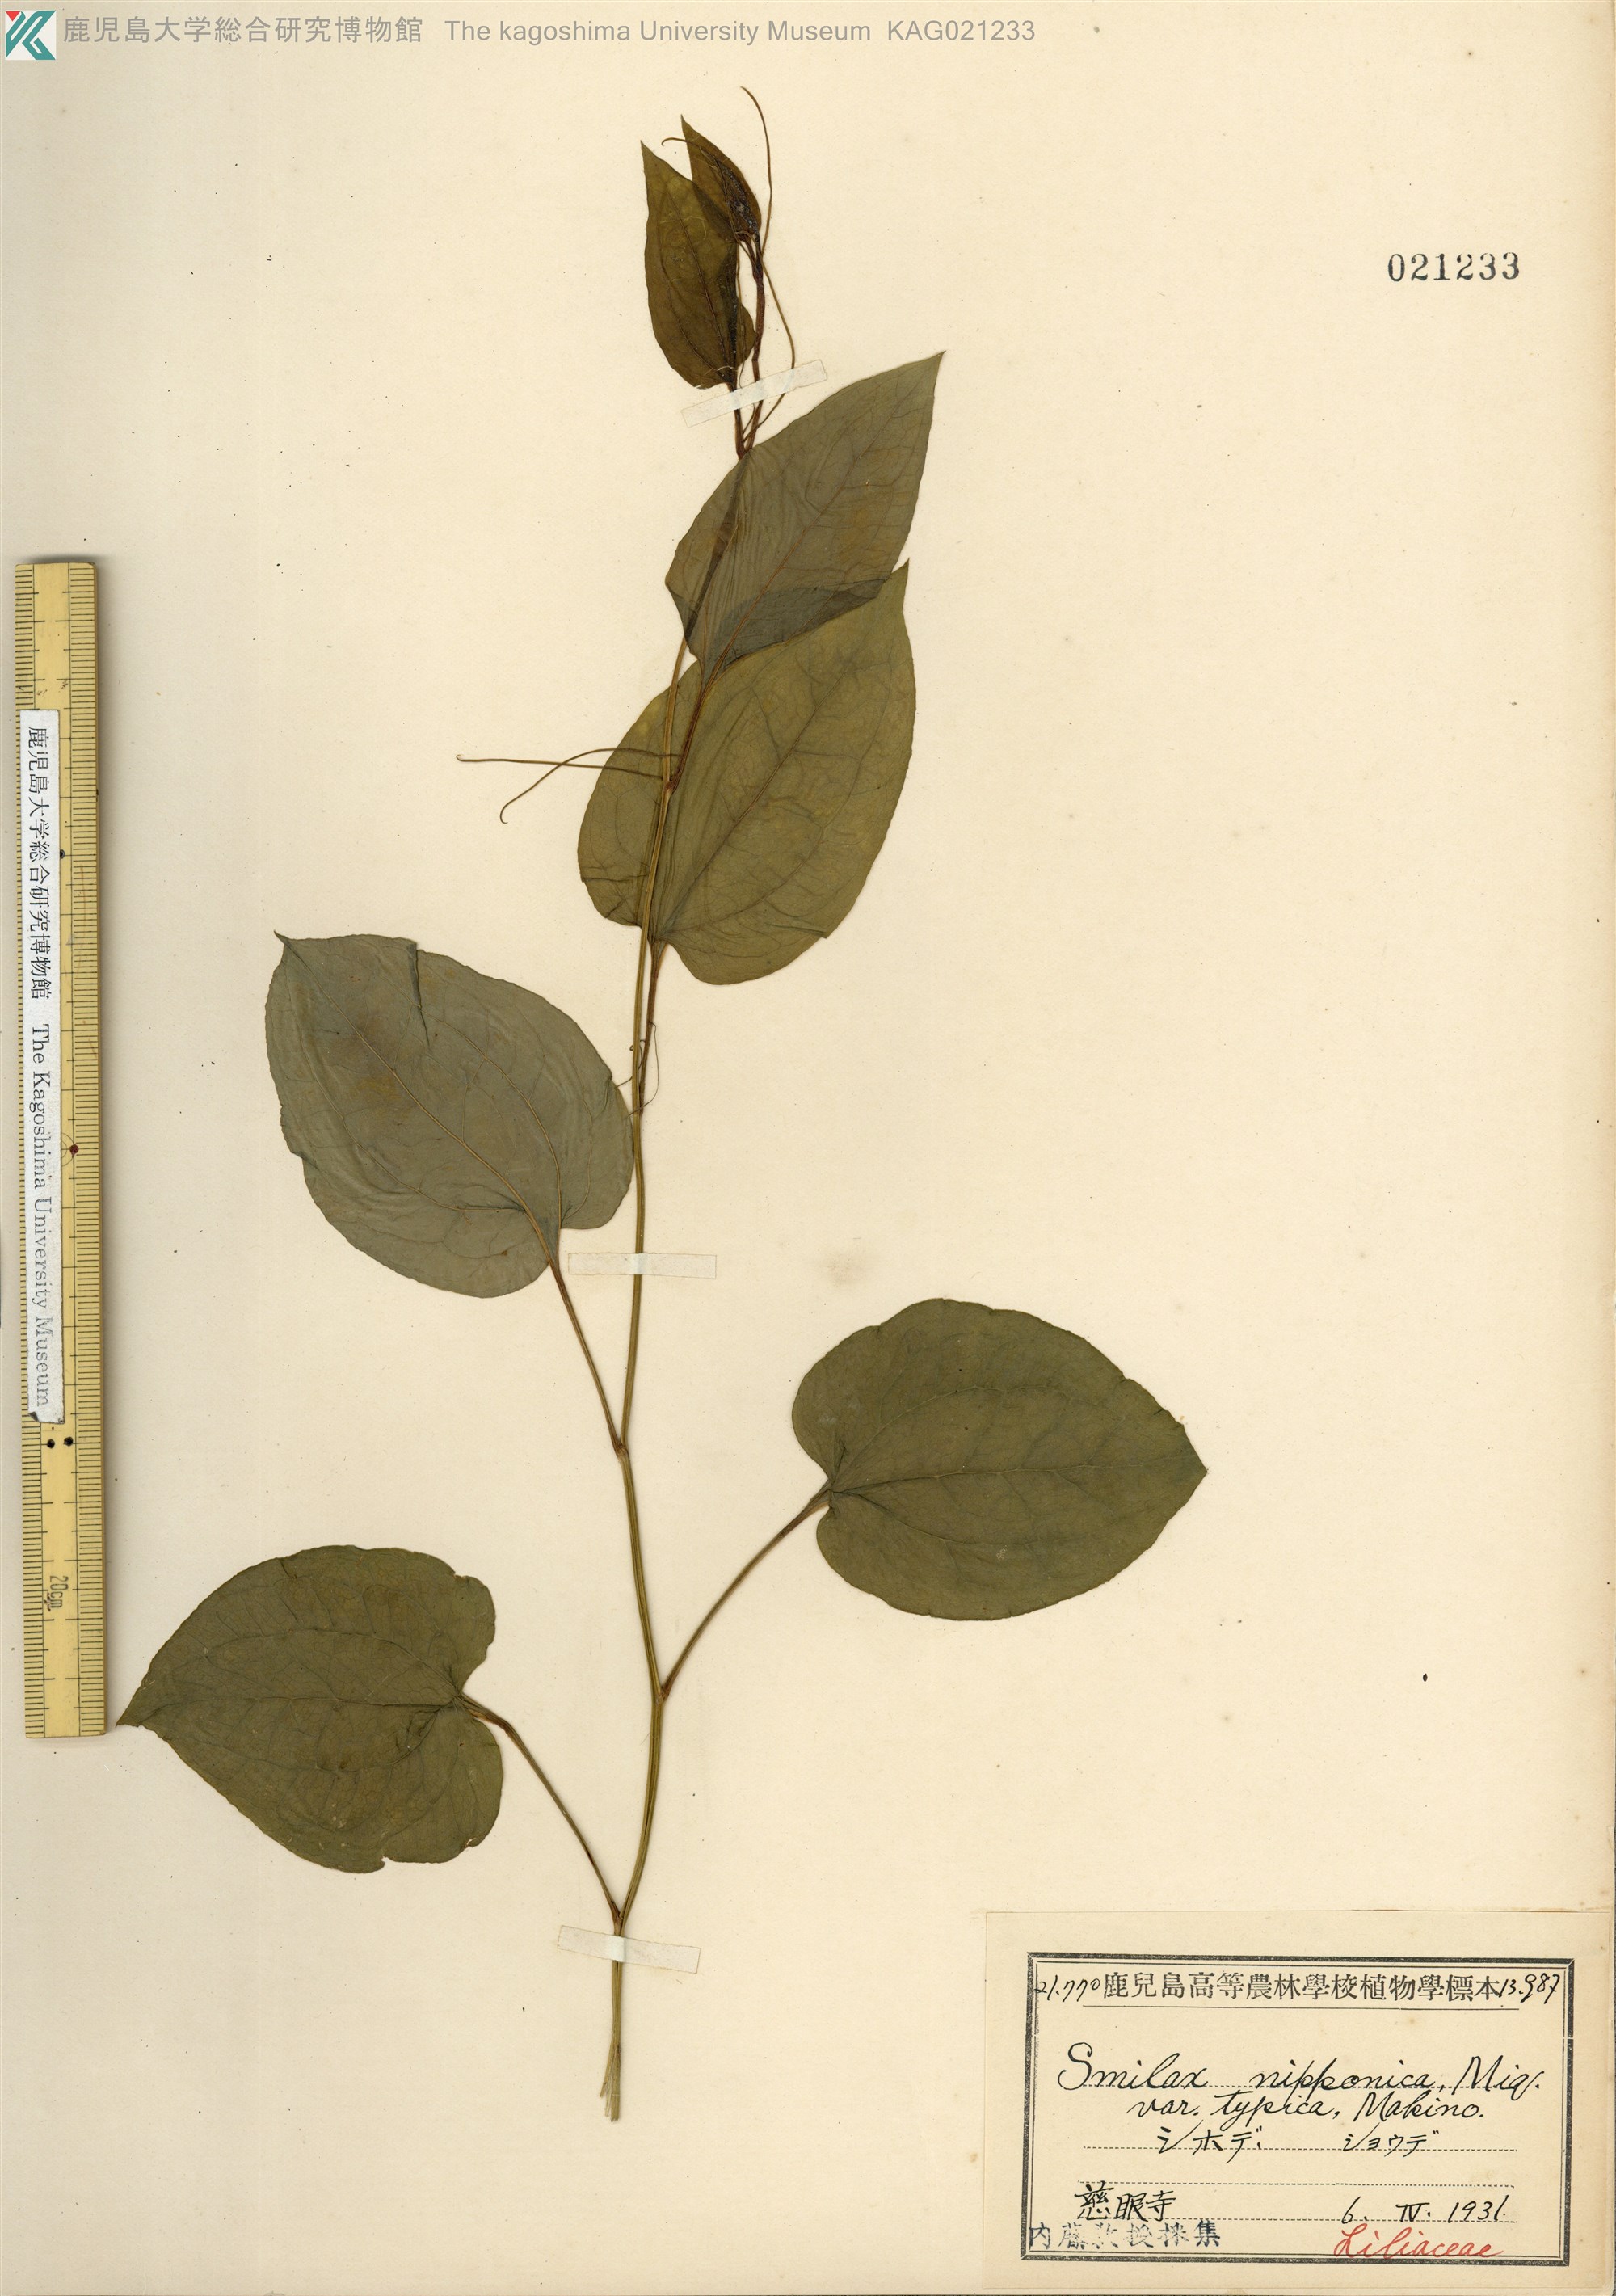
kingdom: Plantae
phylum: Tracheophyta
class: Liliopsida
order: Liliales
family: Smilacaceae
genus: Smilax
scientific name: Smilax riparia
